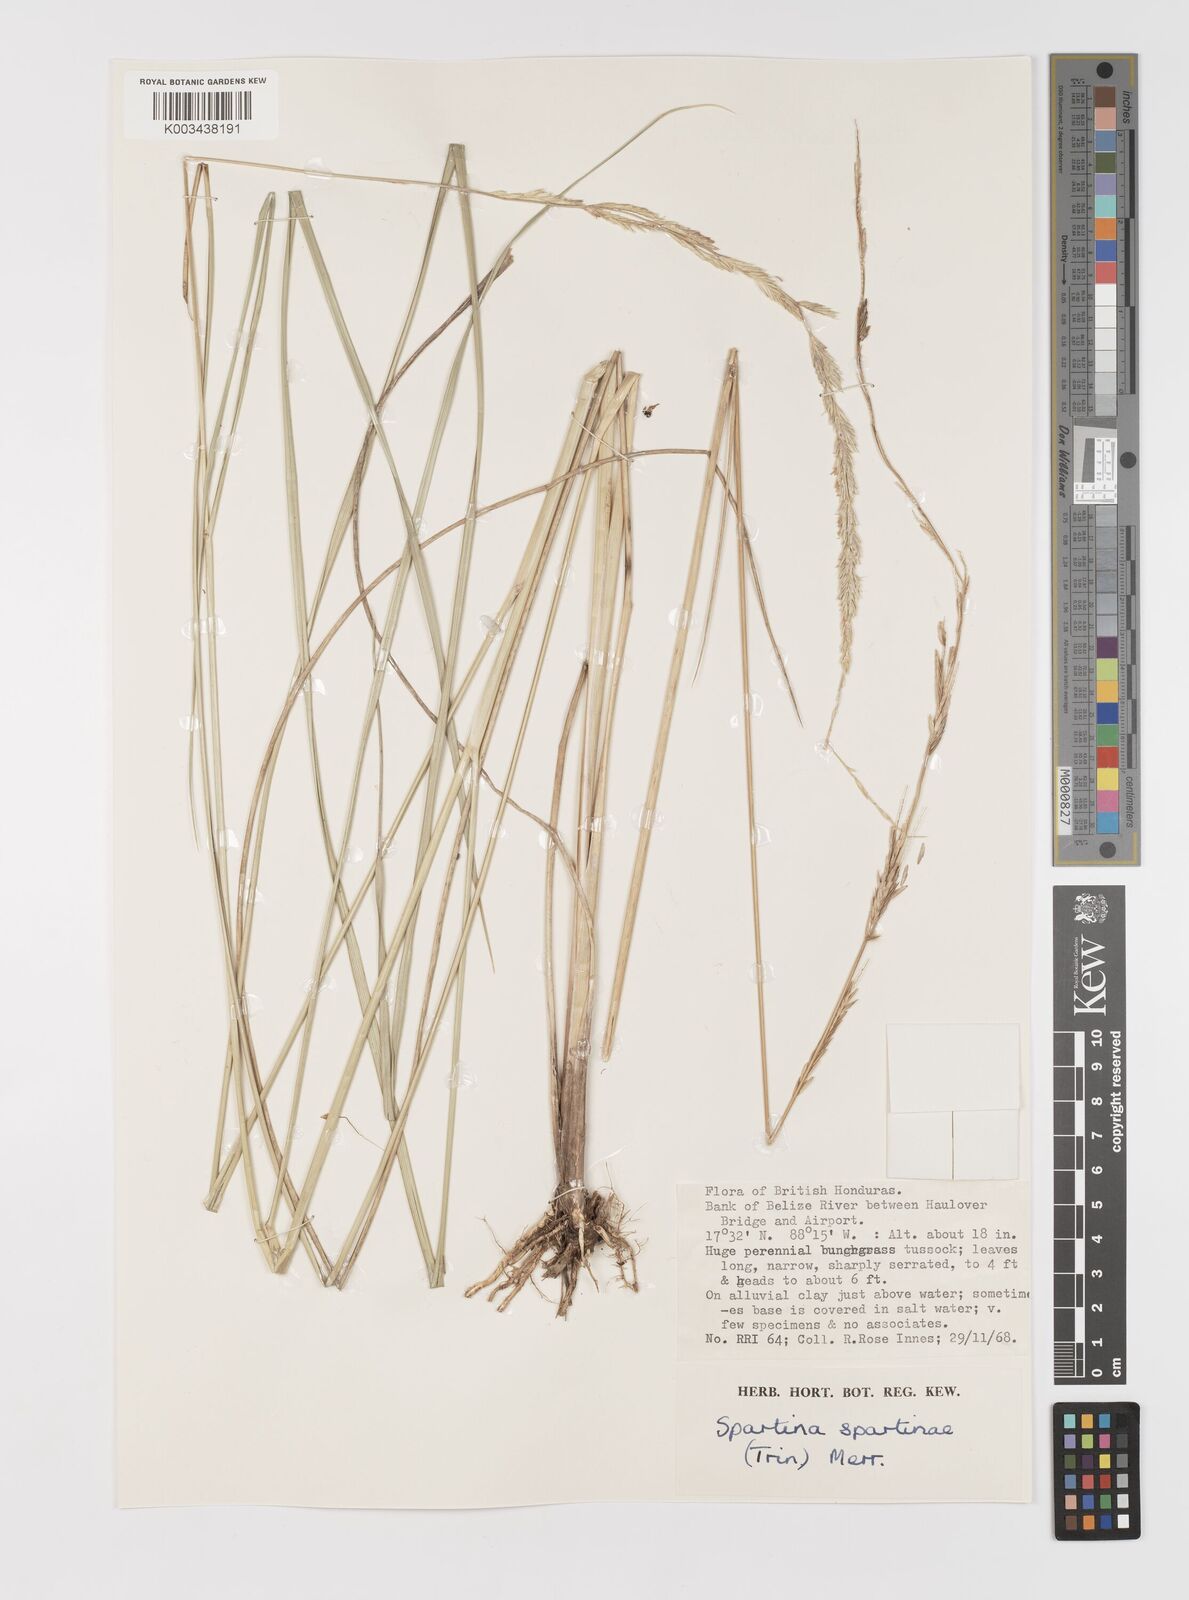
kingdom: Plantae
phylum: Tracheophyta
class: Liliopsida
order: Poales
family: Poaceae
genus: Sporobolus
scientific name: Sporobolus spartinae
